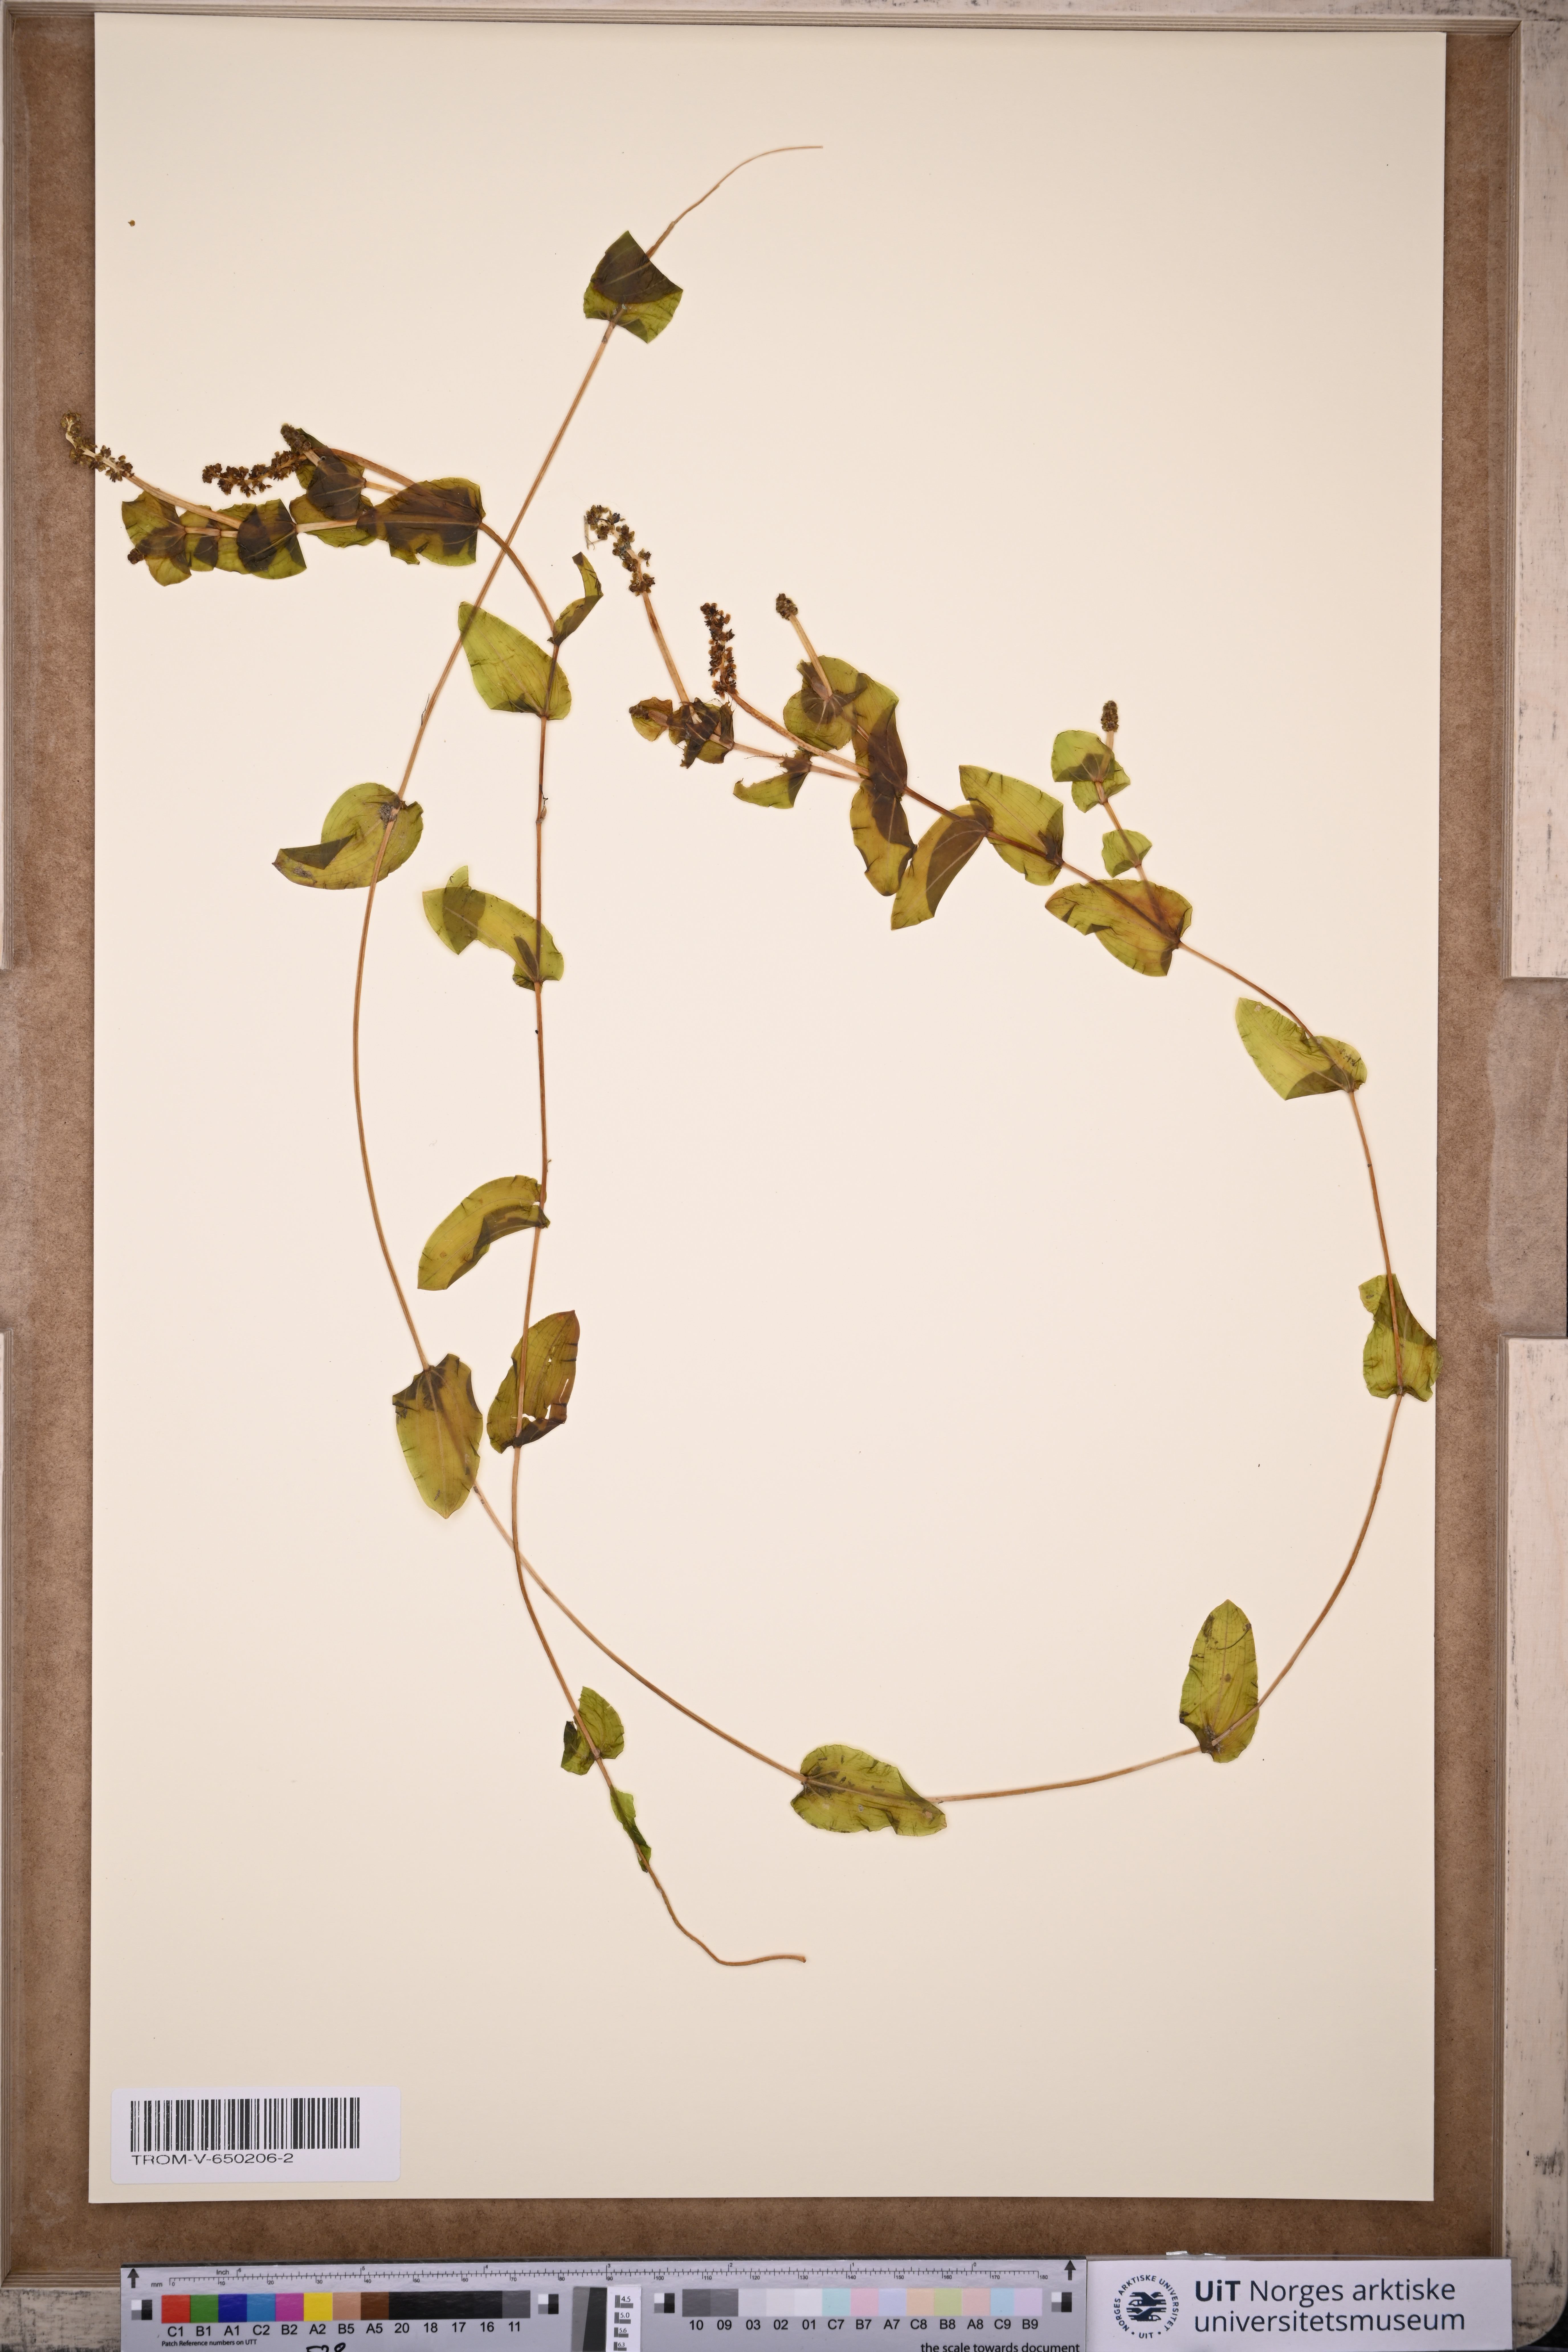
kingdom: Plantae
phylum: Tracheophyta
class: Liliopsida
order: Alismatales
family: Potamogetonaceae
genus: Potamogeton
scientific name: Potamogeton perfoliatus
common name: Perfoliate pondweed
